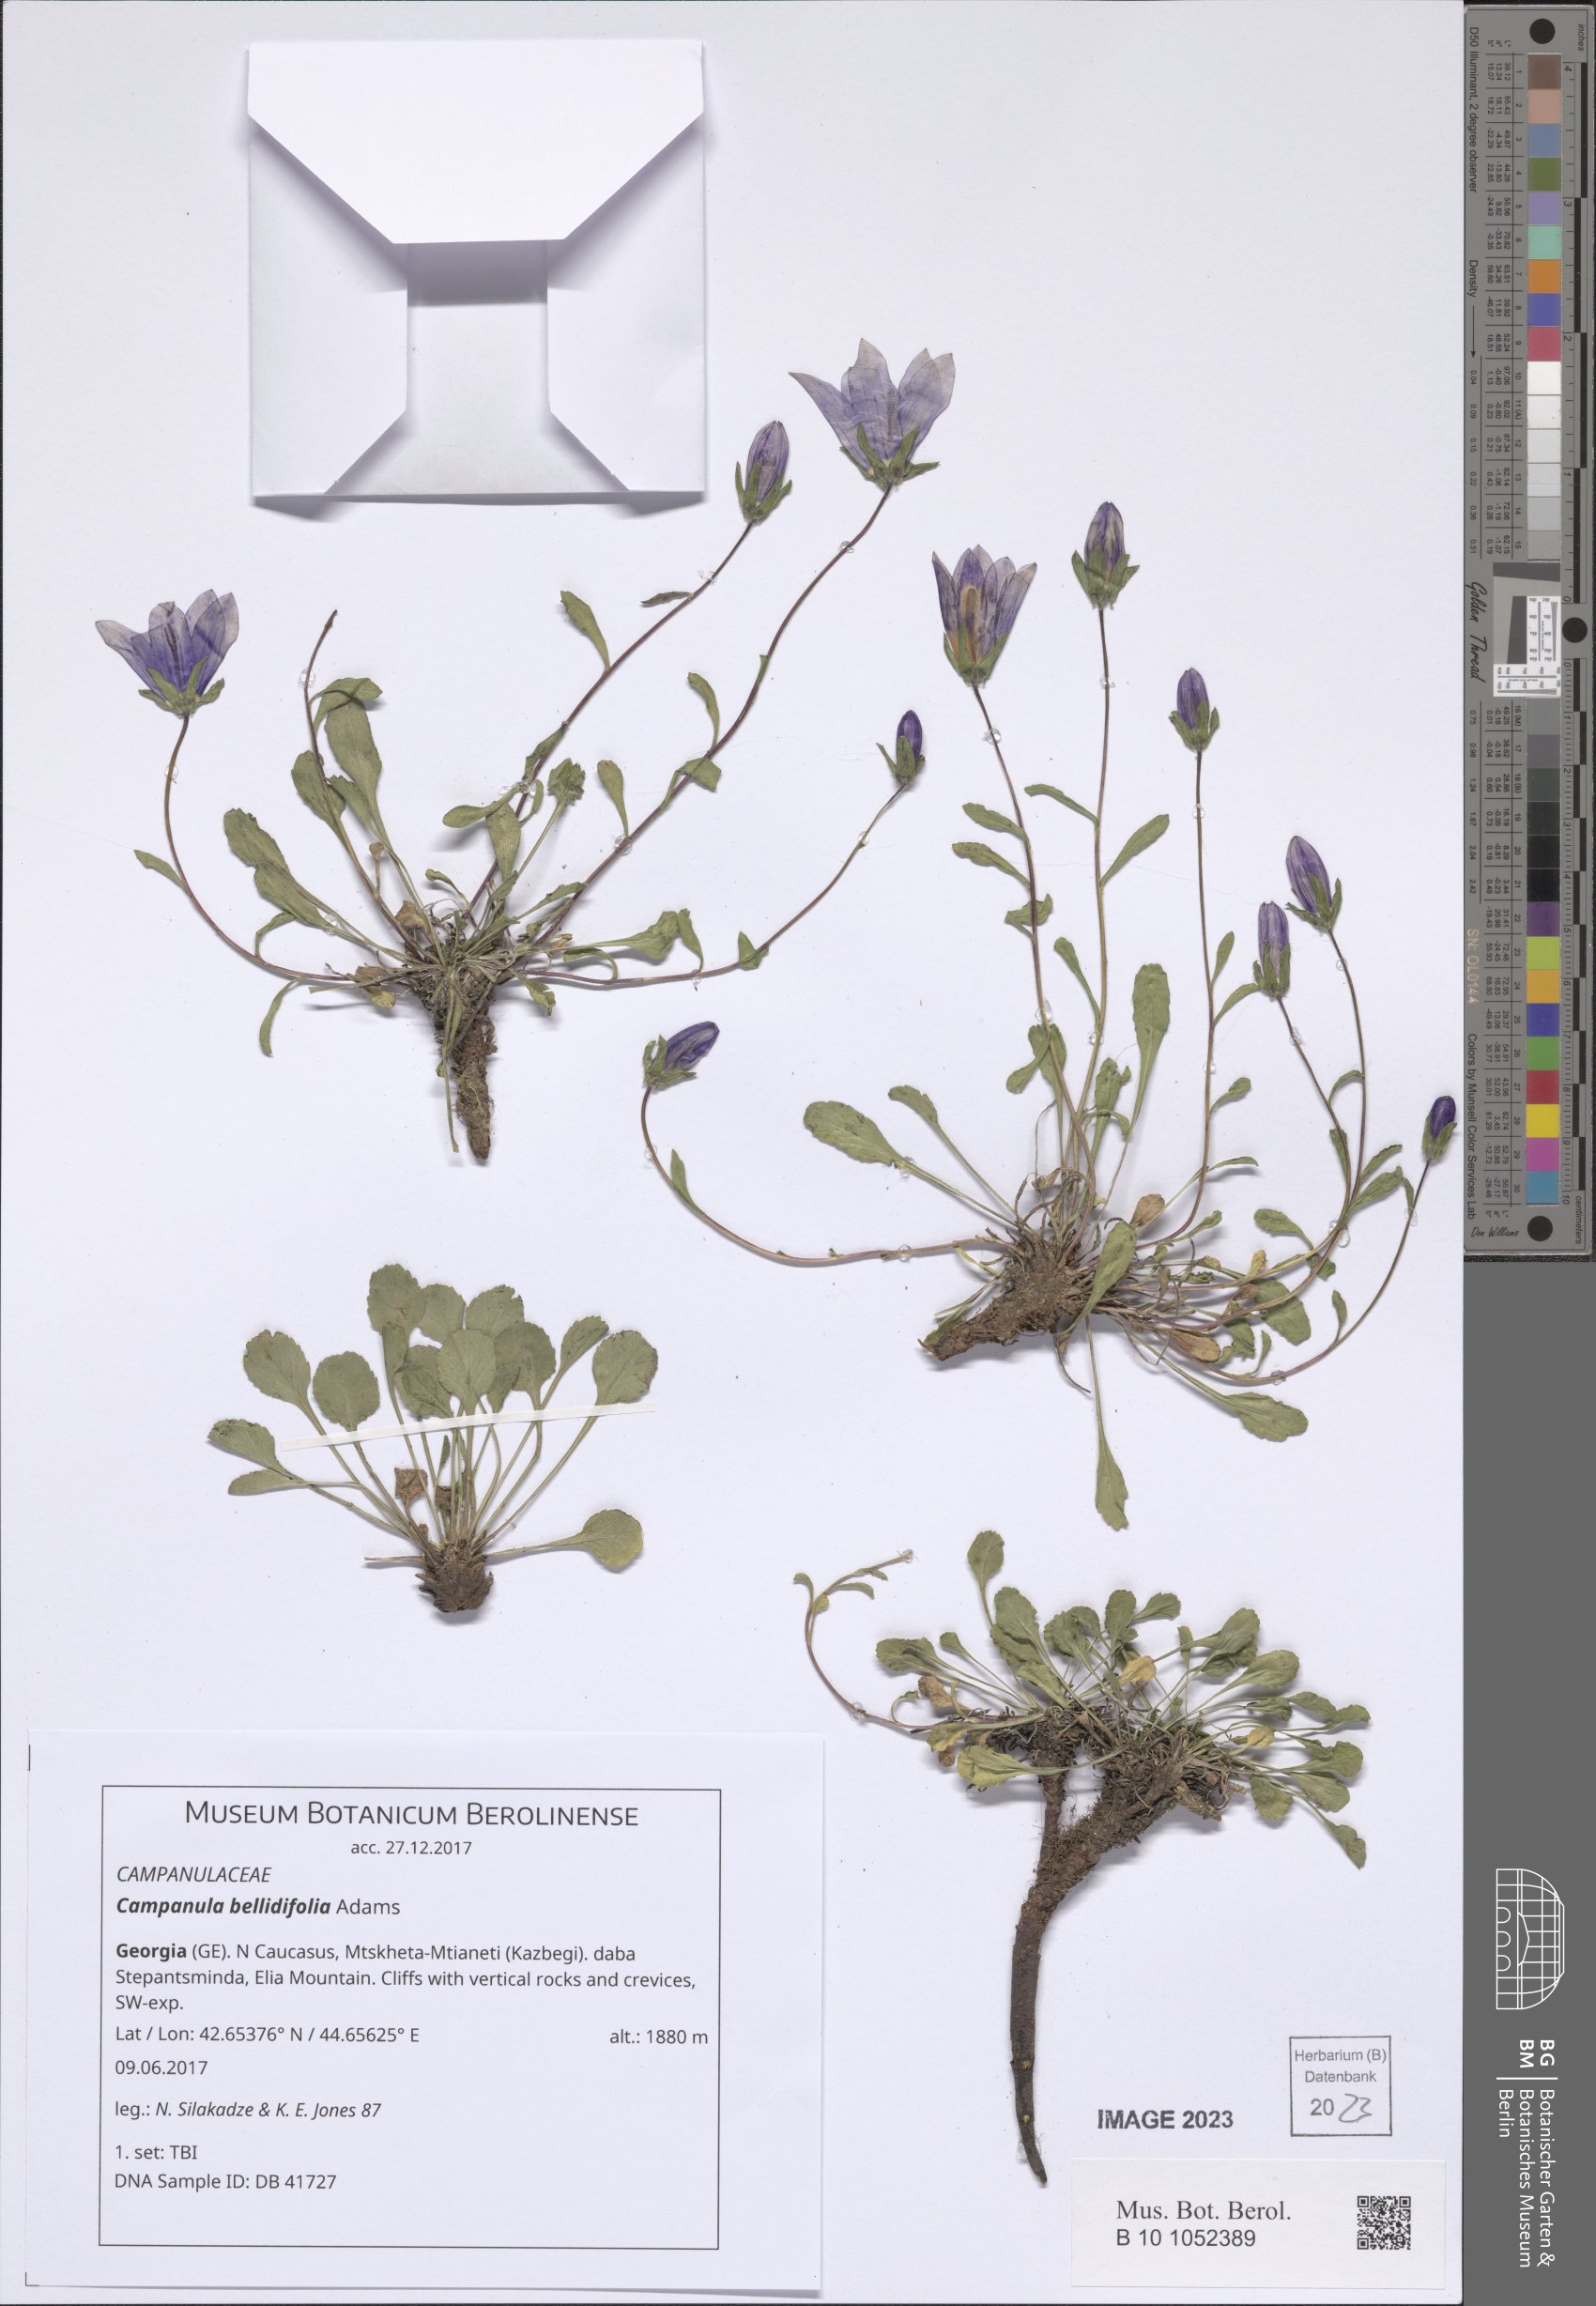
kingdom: Plantae
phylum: Tracheophyta
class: Magnoliopsida
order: Asterales
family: Campanulaceae
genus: Campanula
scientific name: Campanula bellidifolia
